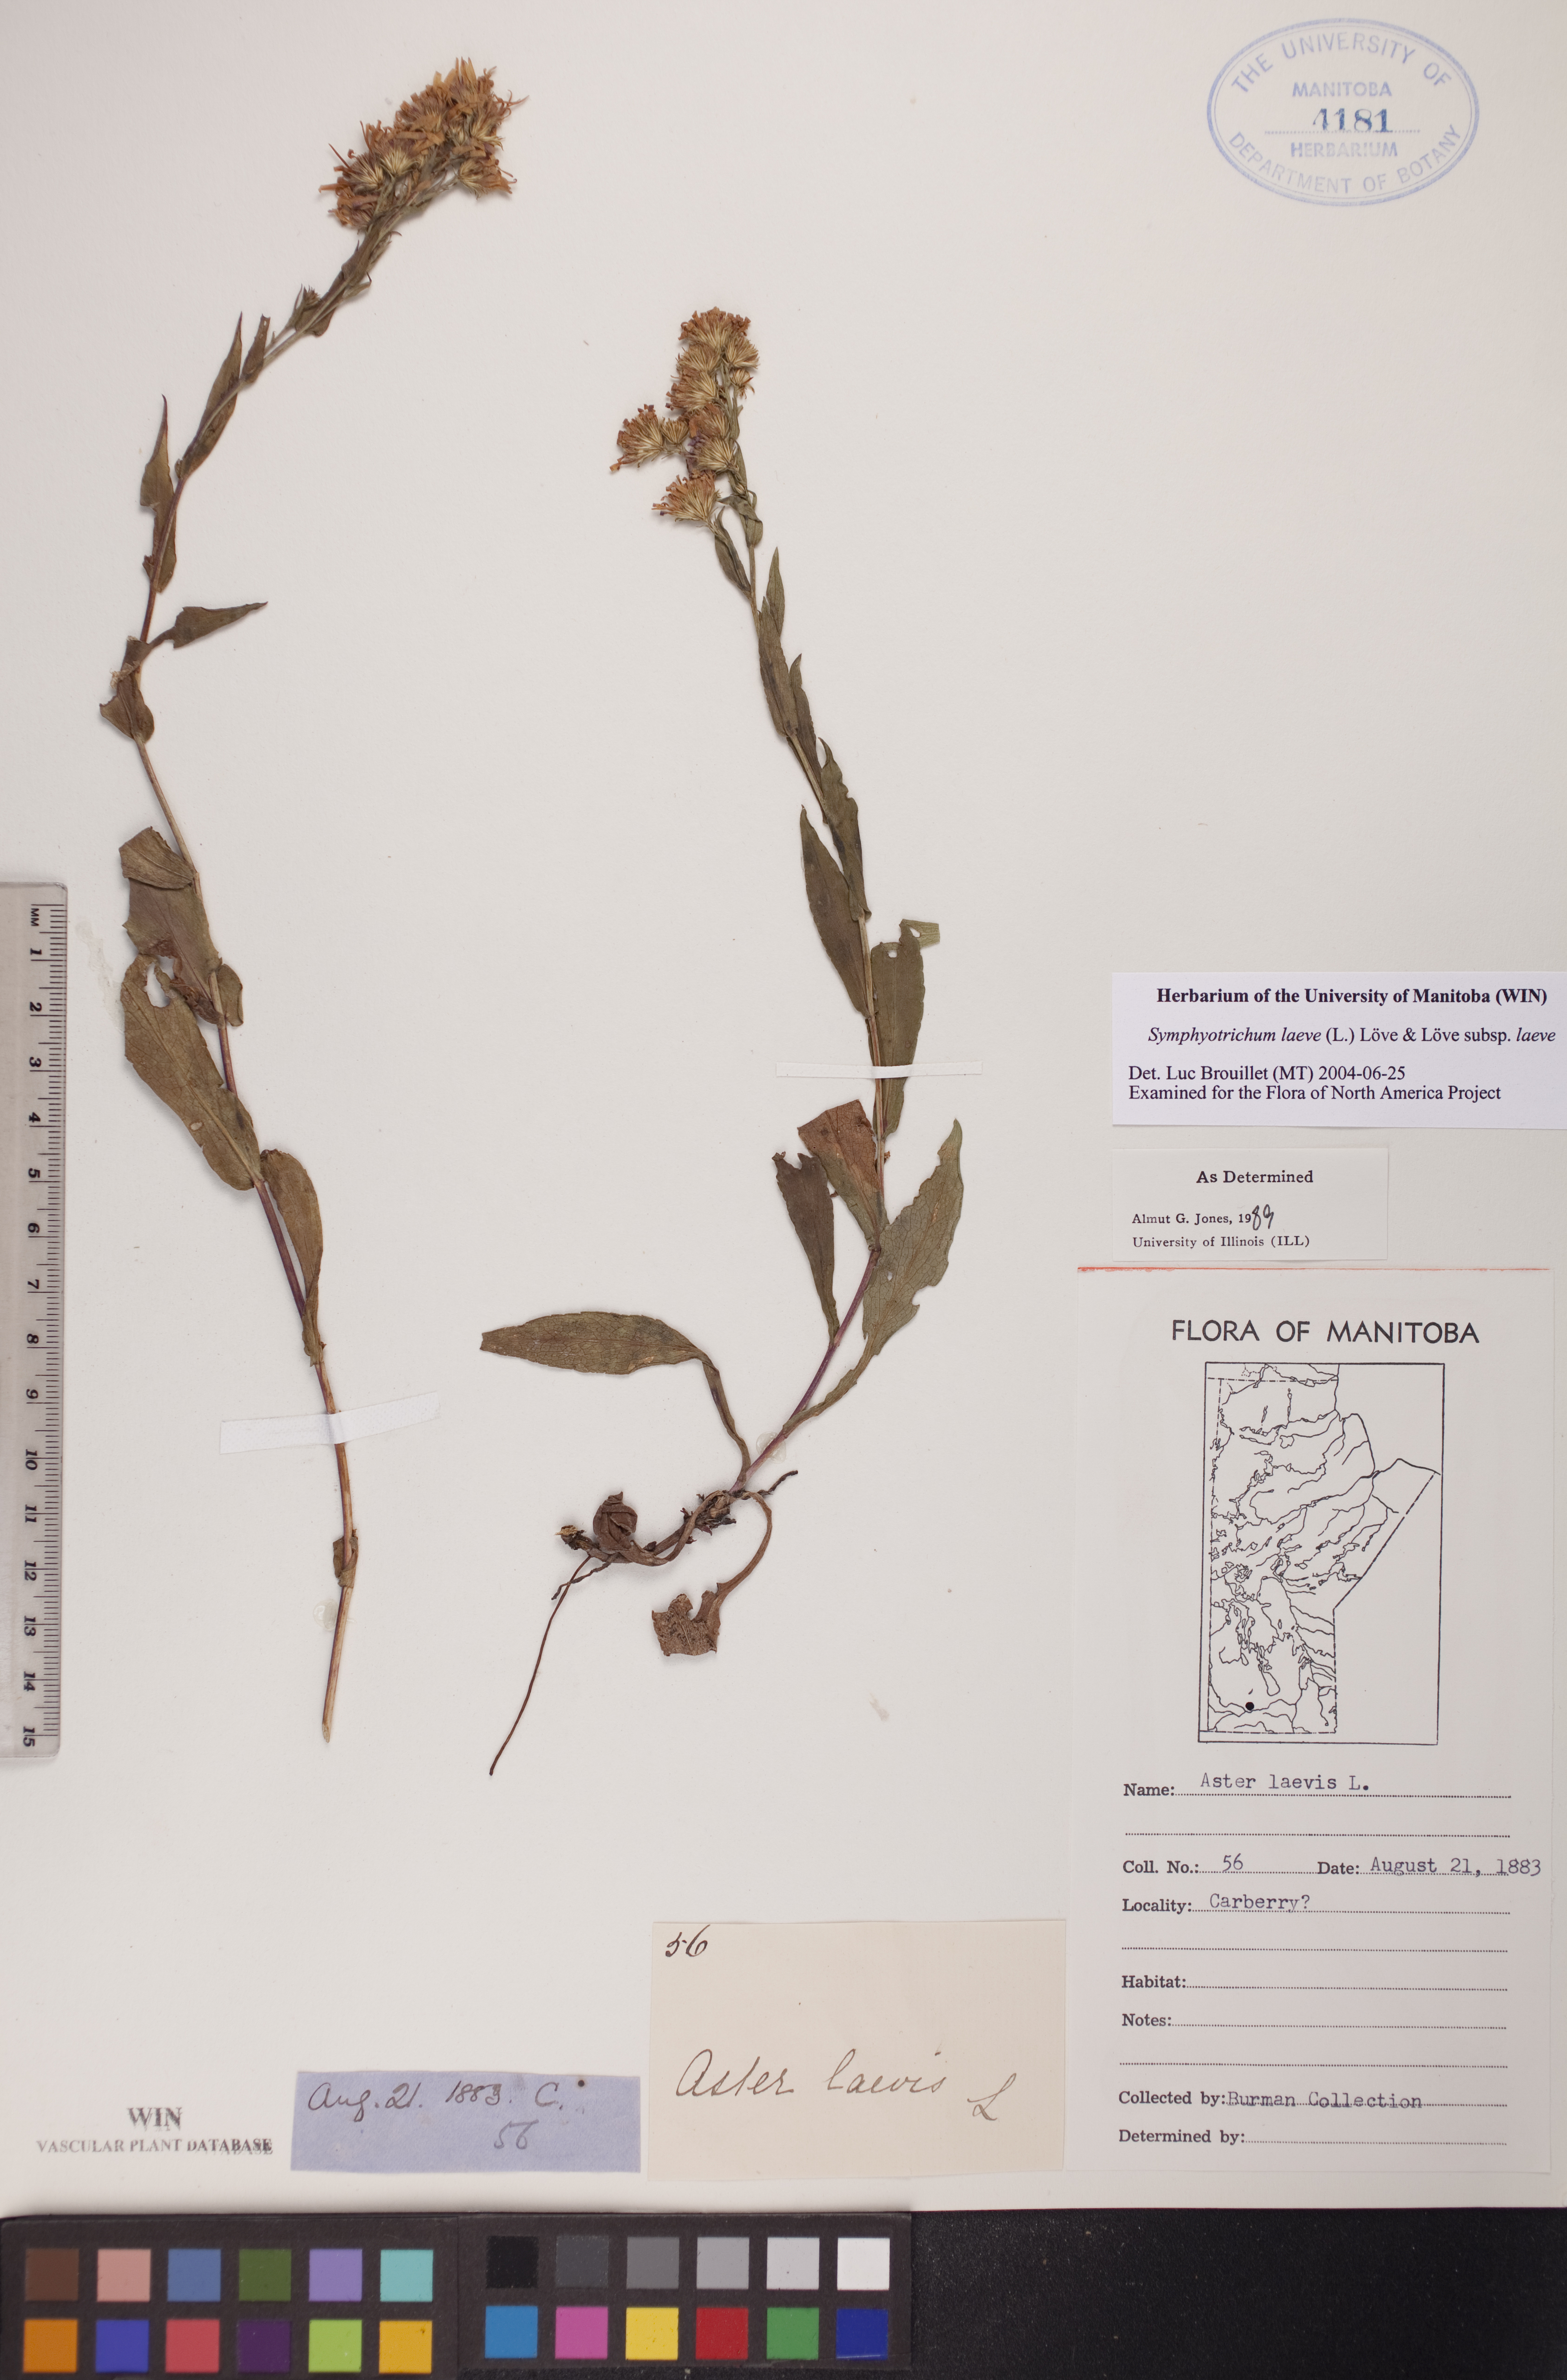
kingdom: Plantae
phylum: Tracheophyta
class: Magnoliopsida
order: Asterales
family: Asteraceae
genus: Symphyotrichum
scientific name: Symphyotrichum laeve
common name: Glaucous aster
